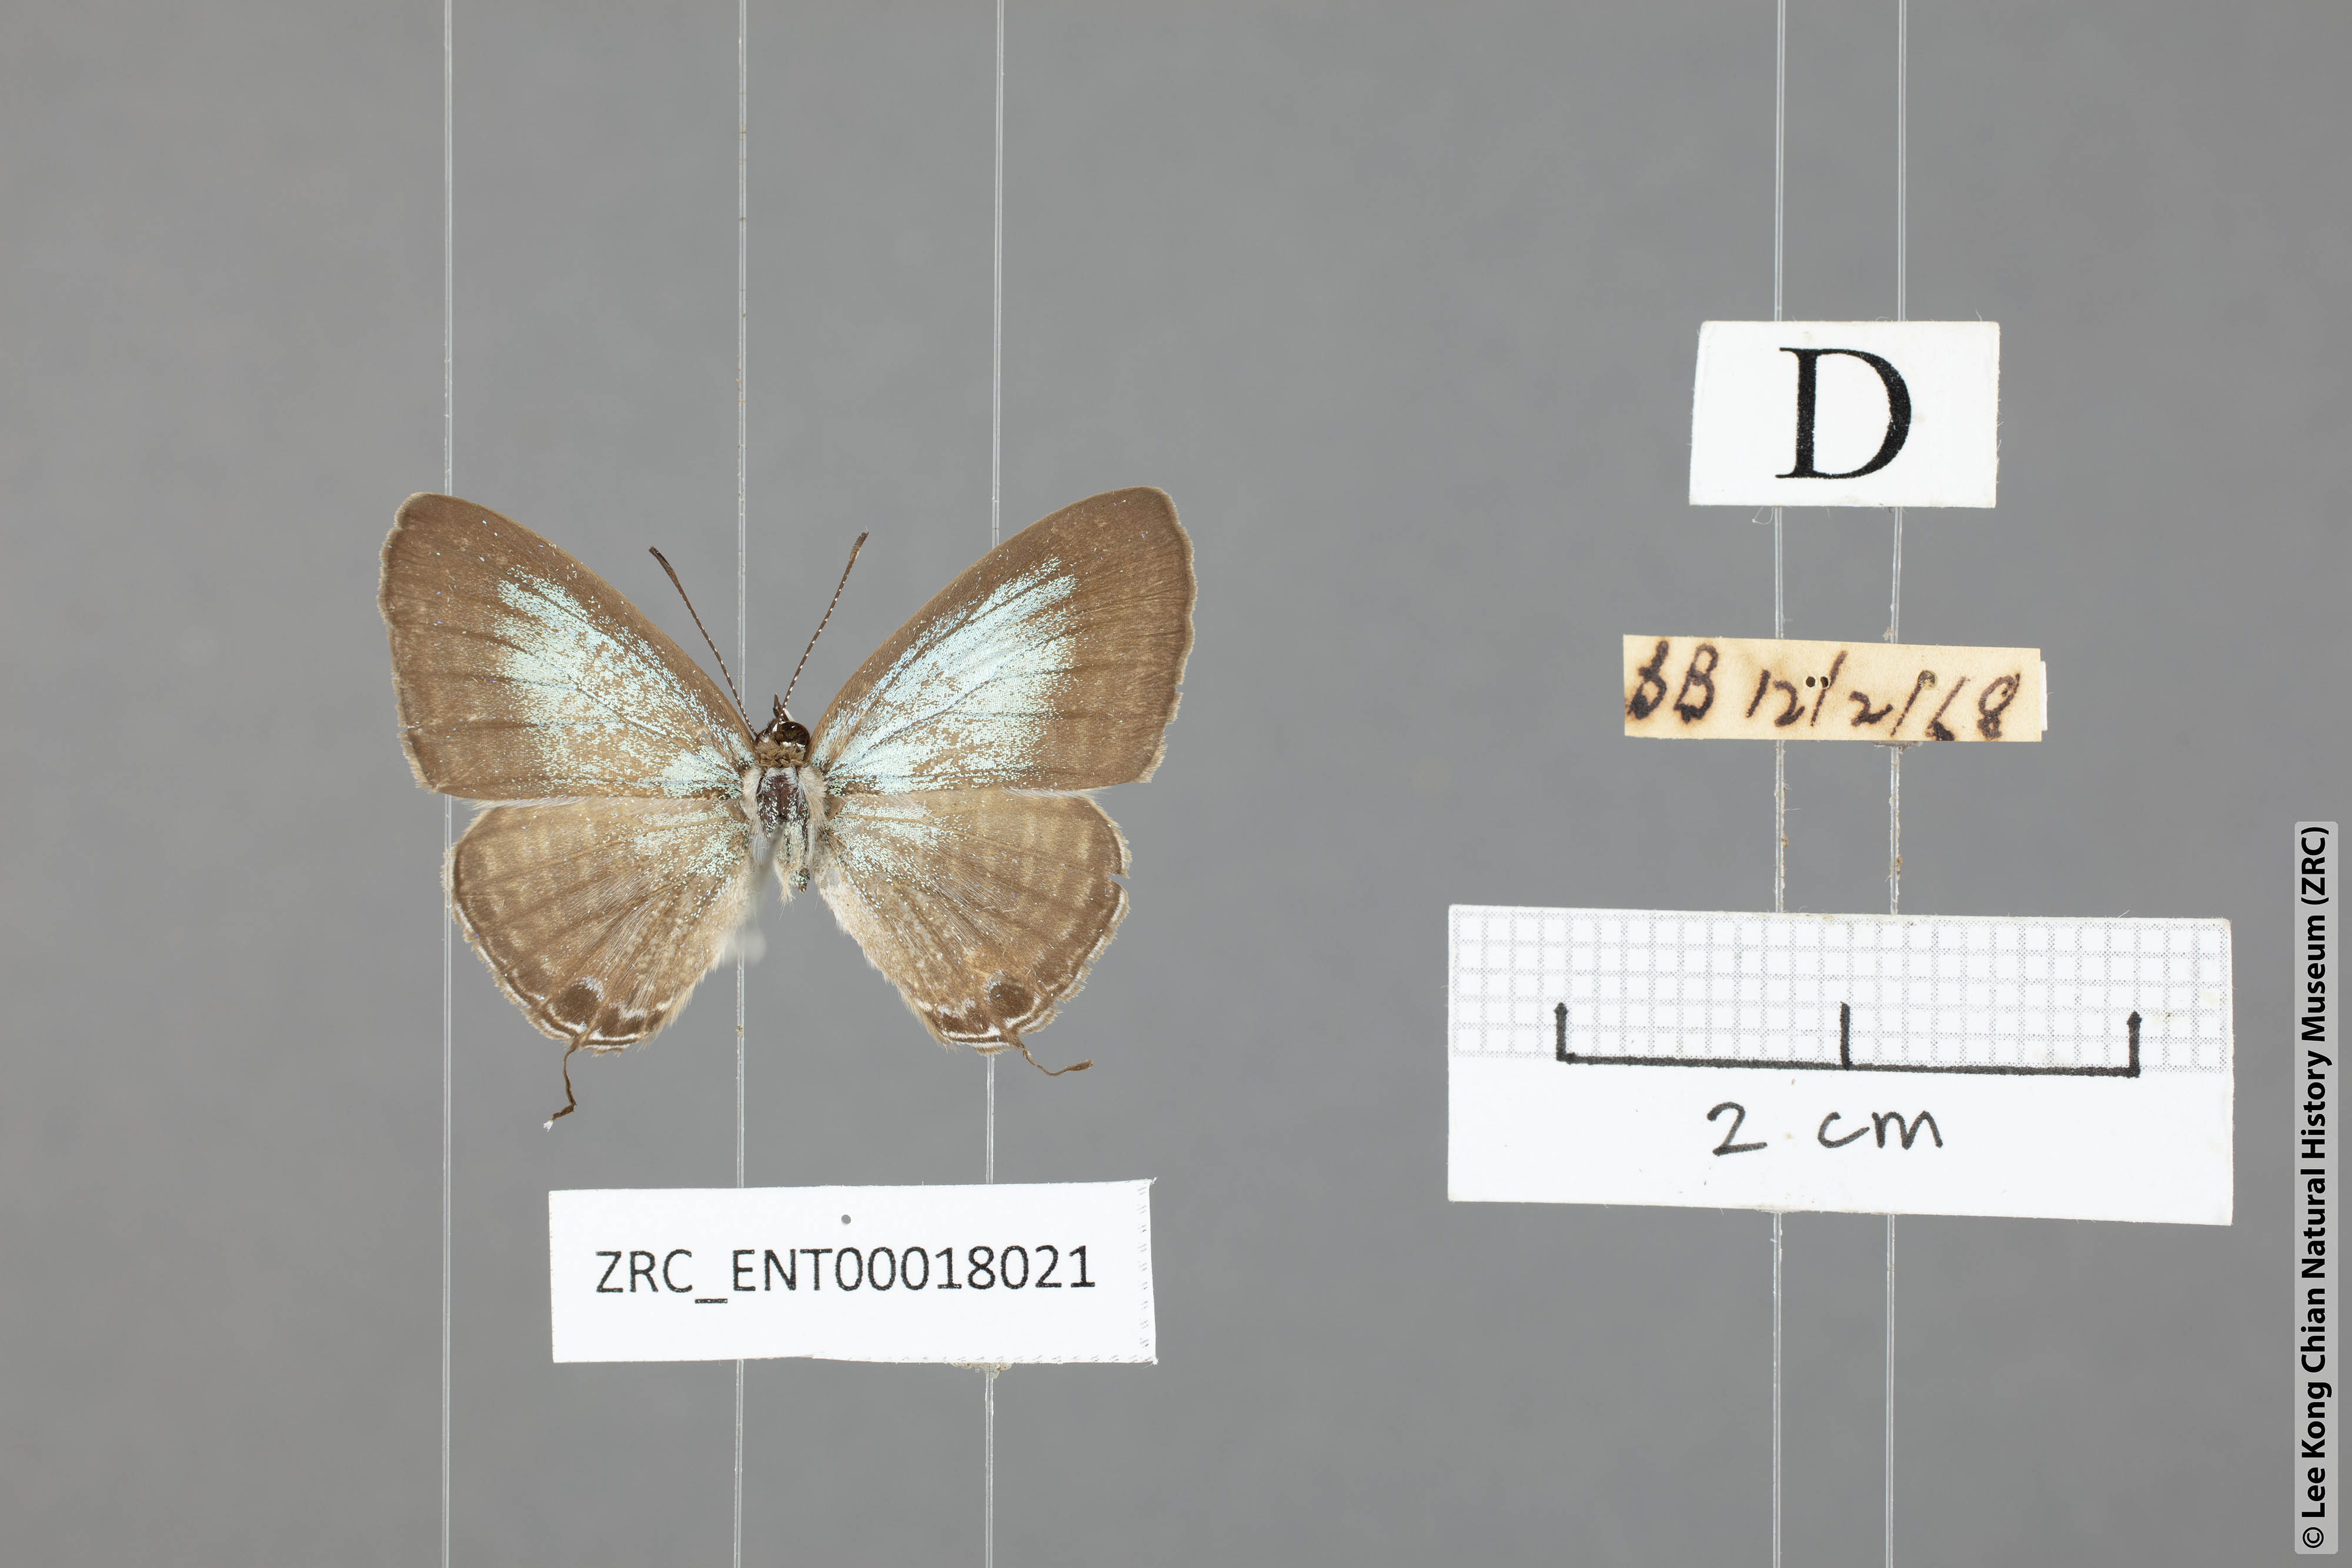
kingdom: Animalia
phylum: Arthropoda
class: Insecta
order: Lepidoptera
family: Lycaenidae
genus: Jamides
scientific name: Jamides abdul
